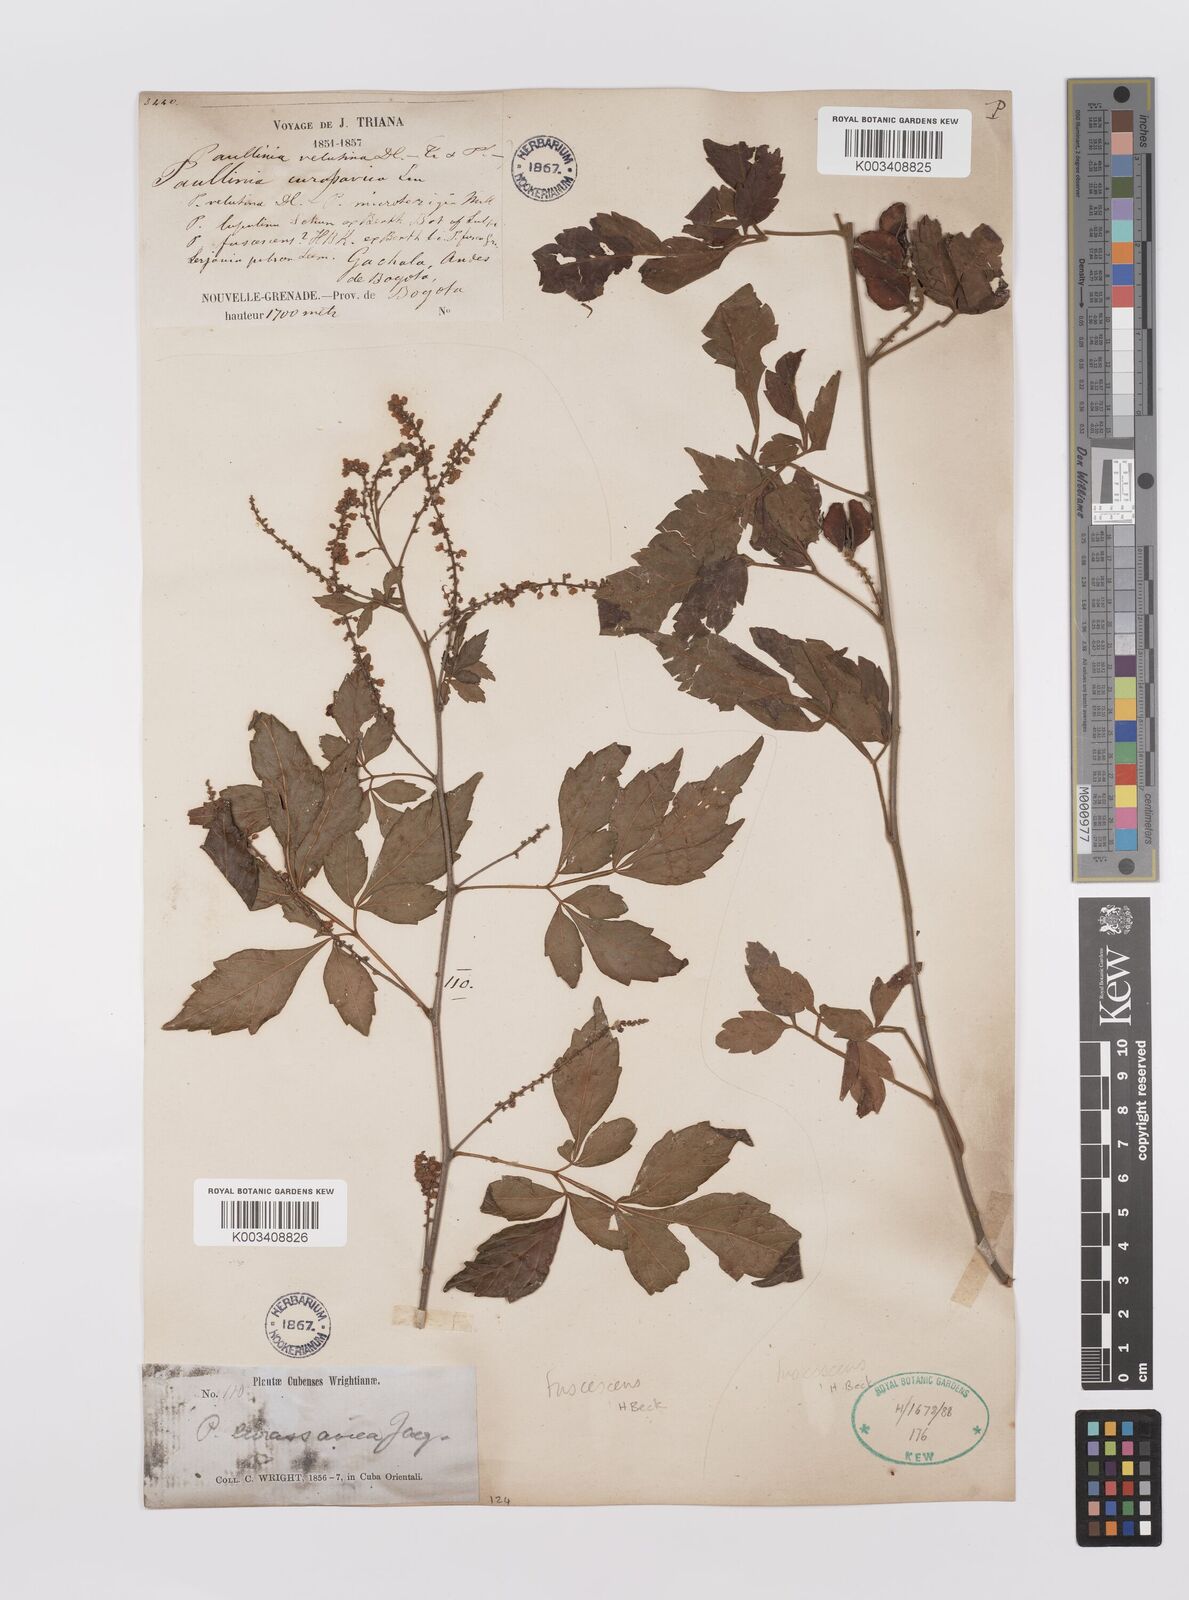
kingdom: Plantae
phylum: Tracheophyta
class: Magnoliopsida
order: Sapindales
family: Sapindaceae
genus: Paullinia
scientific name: Paullinia fuscescens
